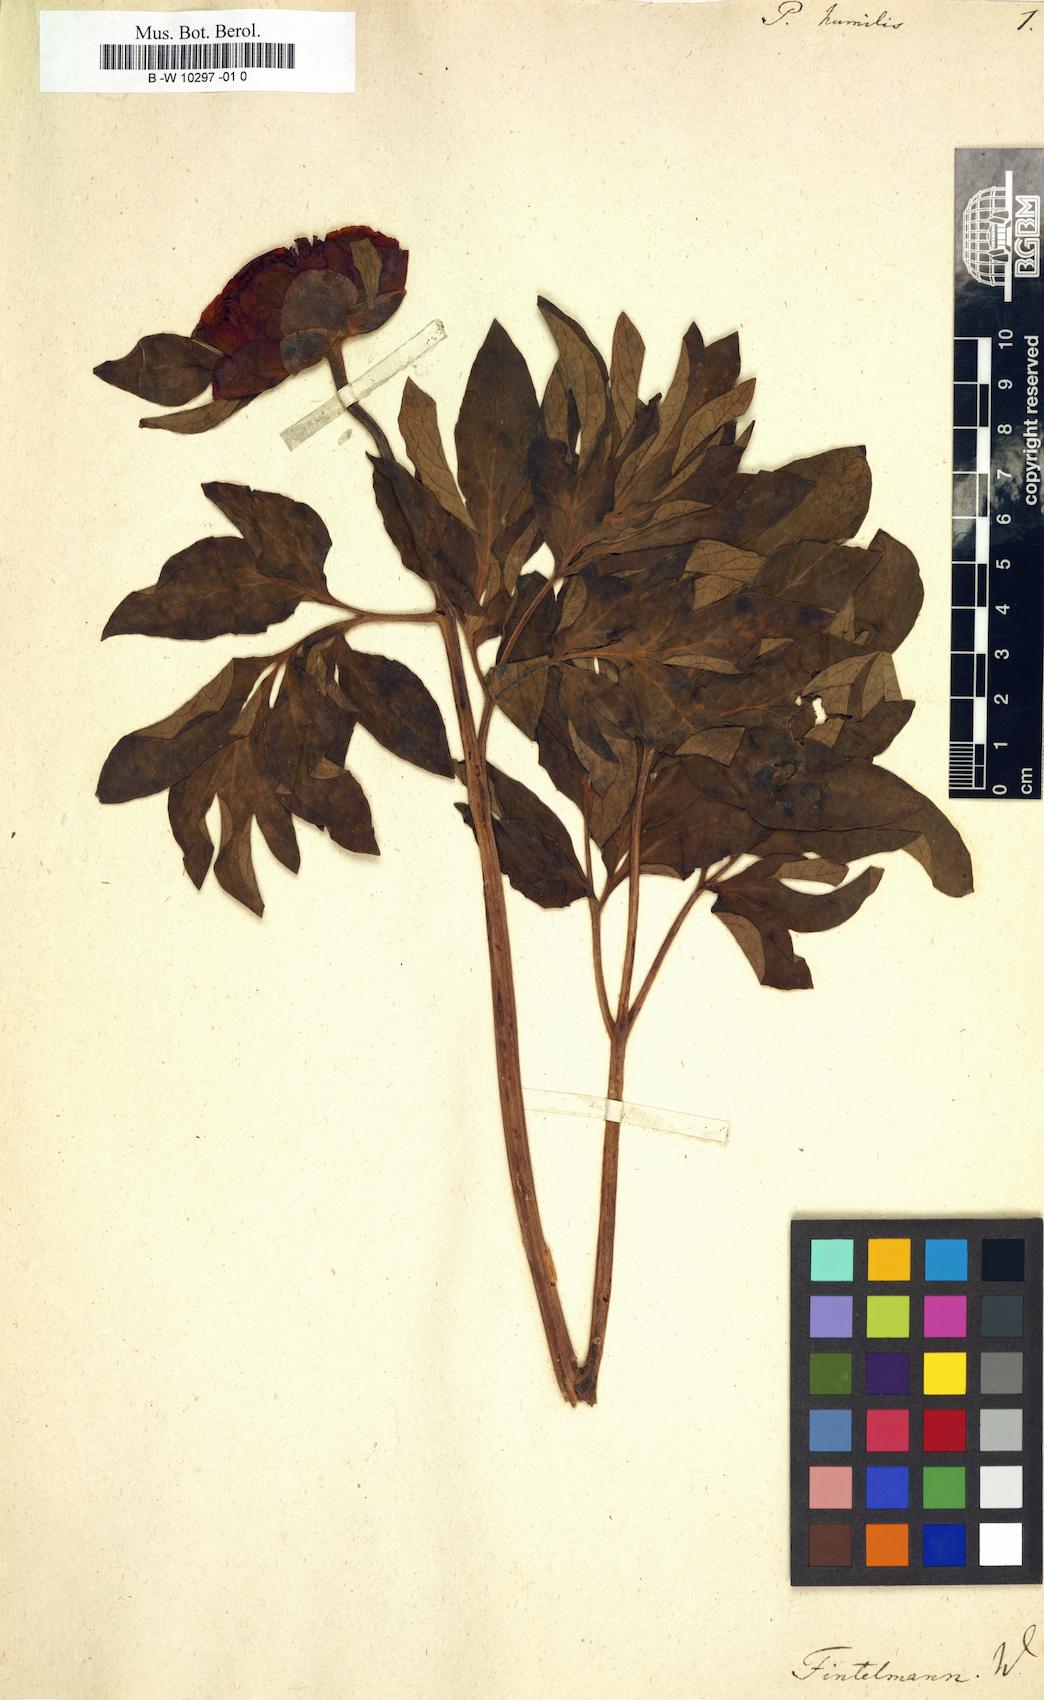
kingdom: Plantae
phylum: Tracheophyta
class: Magnoliopsida
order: Saxifragales
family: Paeoniaceae
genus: Paeonia
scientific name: Paeonia
